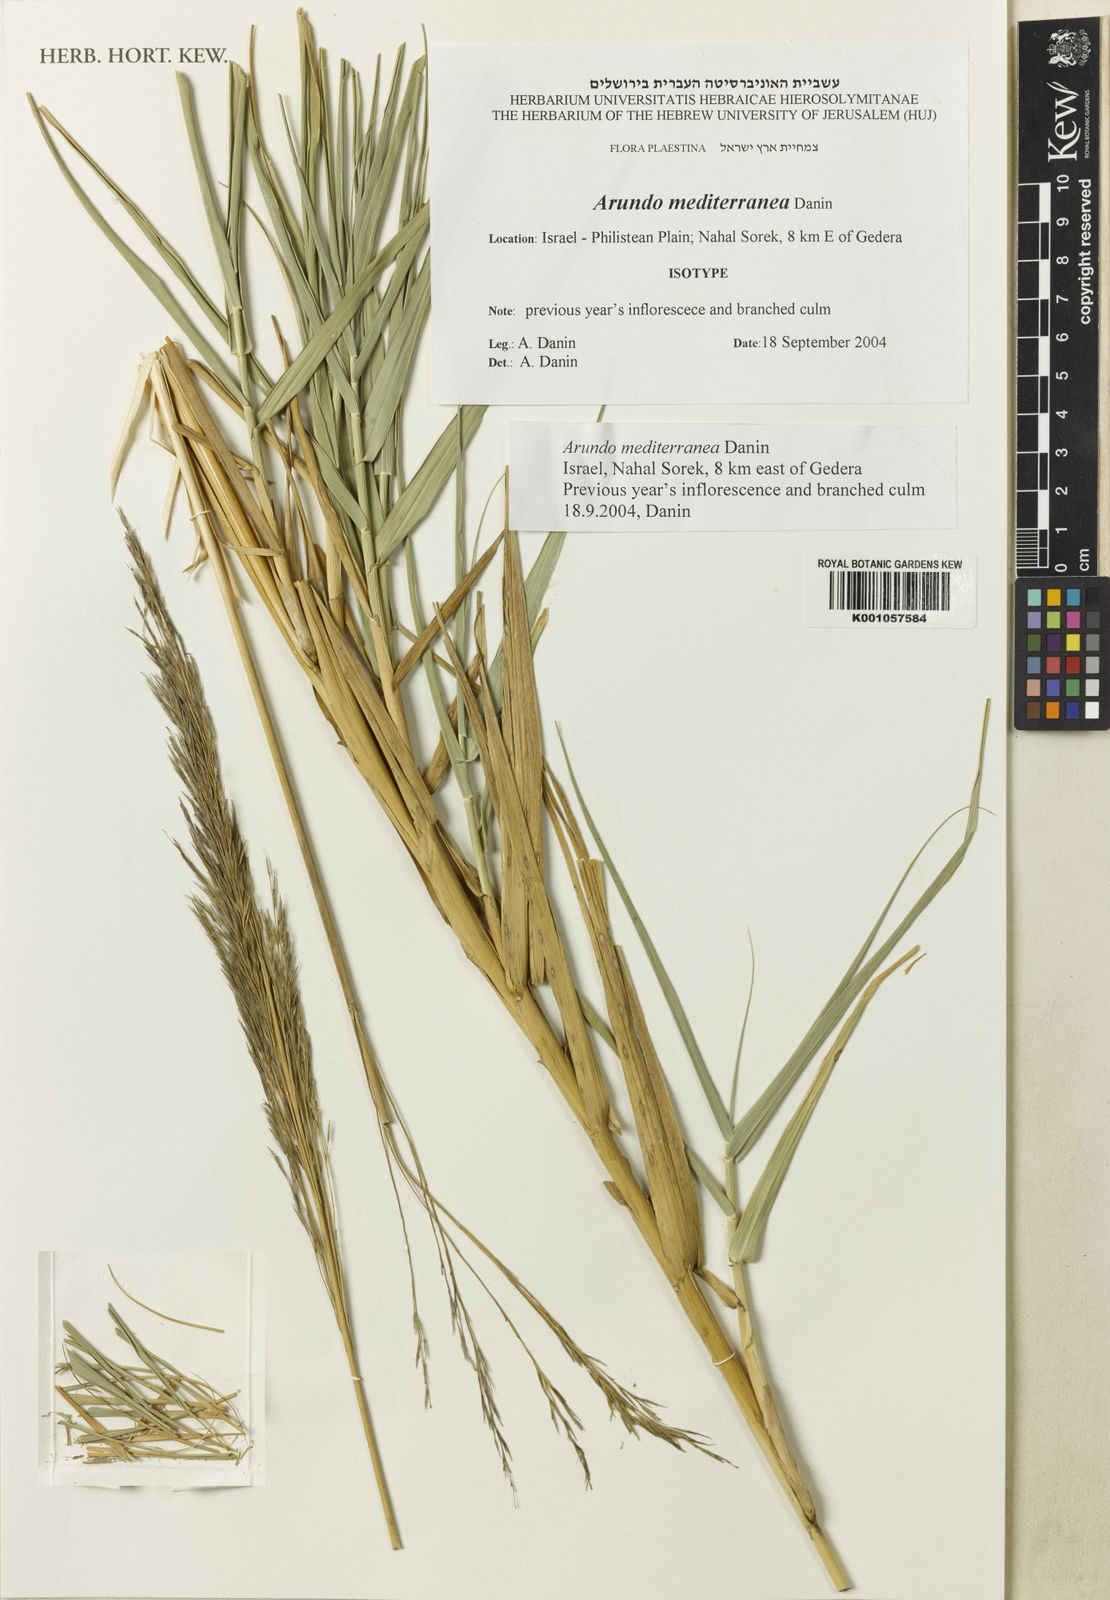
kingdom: Plantae
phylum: Tracheophyta
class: Liliopsida
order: Poales
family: Poaceae
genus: Arundo
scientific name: Arundo micrantha
